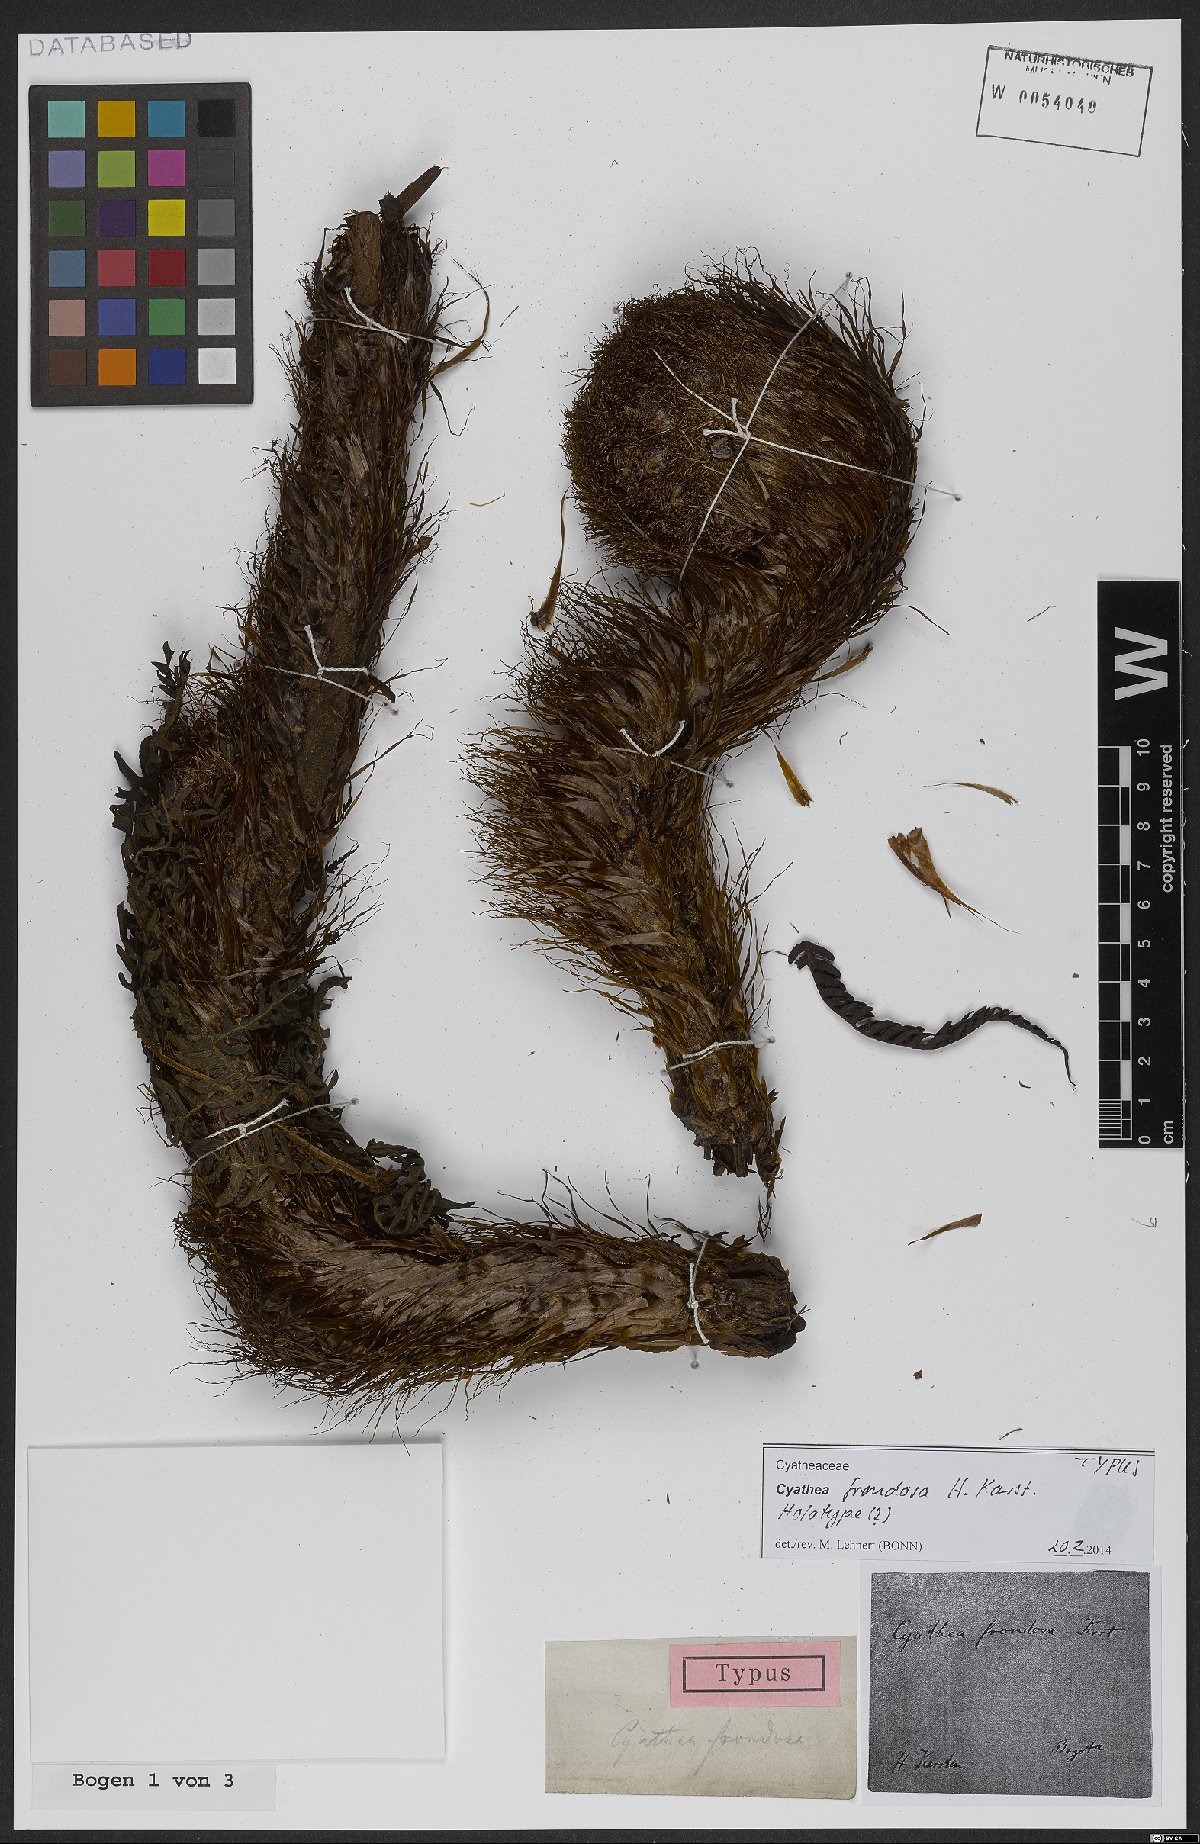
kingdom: Plantae
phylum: Tracheophyta
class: Polypodiopsida
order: Cyatheales
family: Cyatheaceae
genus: Cyathea
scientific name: Cyathea frondosa
